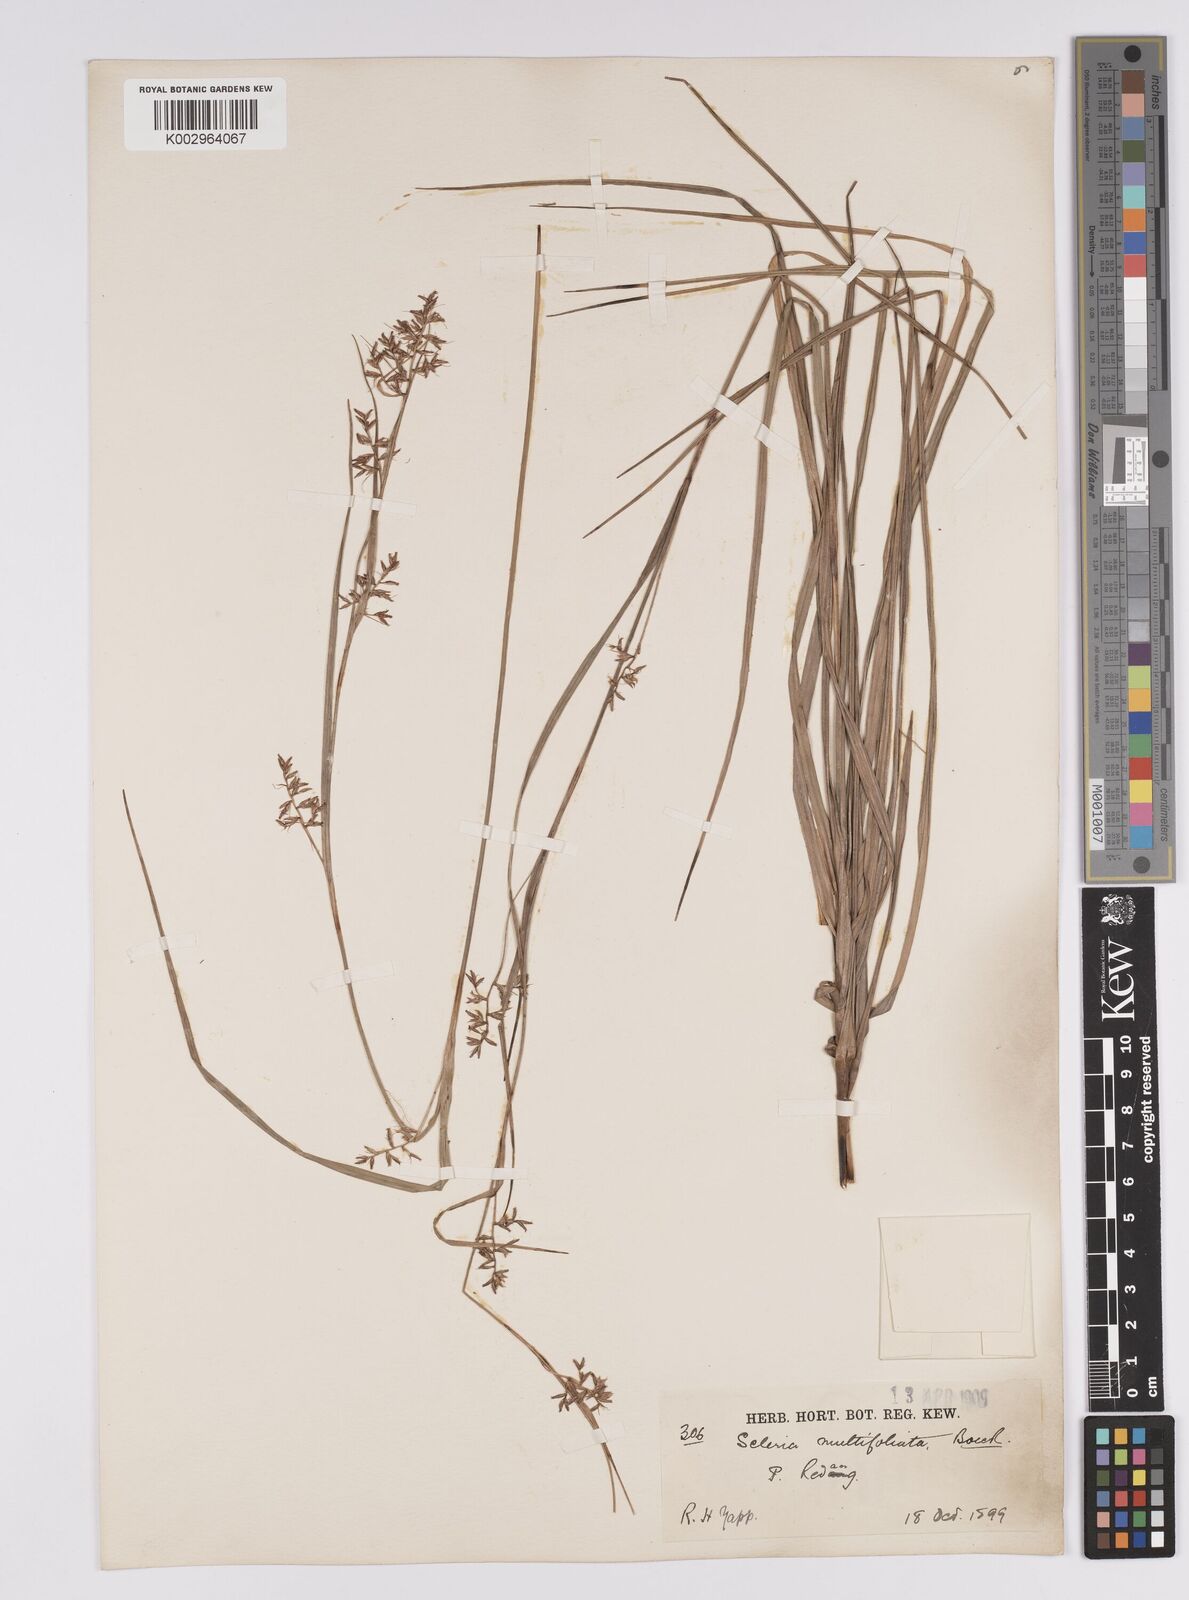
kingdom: Plantae
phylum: Tracheophyta
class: Liliopsida
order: Poales
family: Cyperaceae
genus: Scleria
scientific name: Scleria purpurascens
